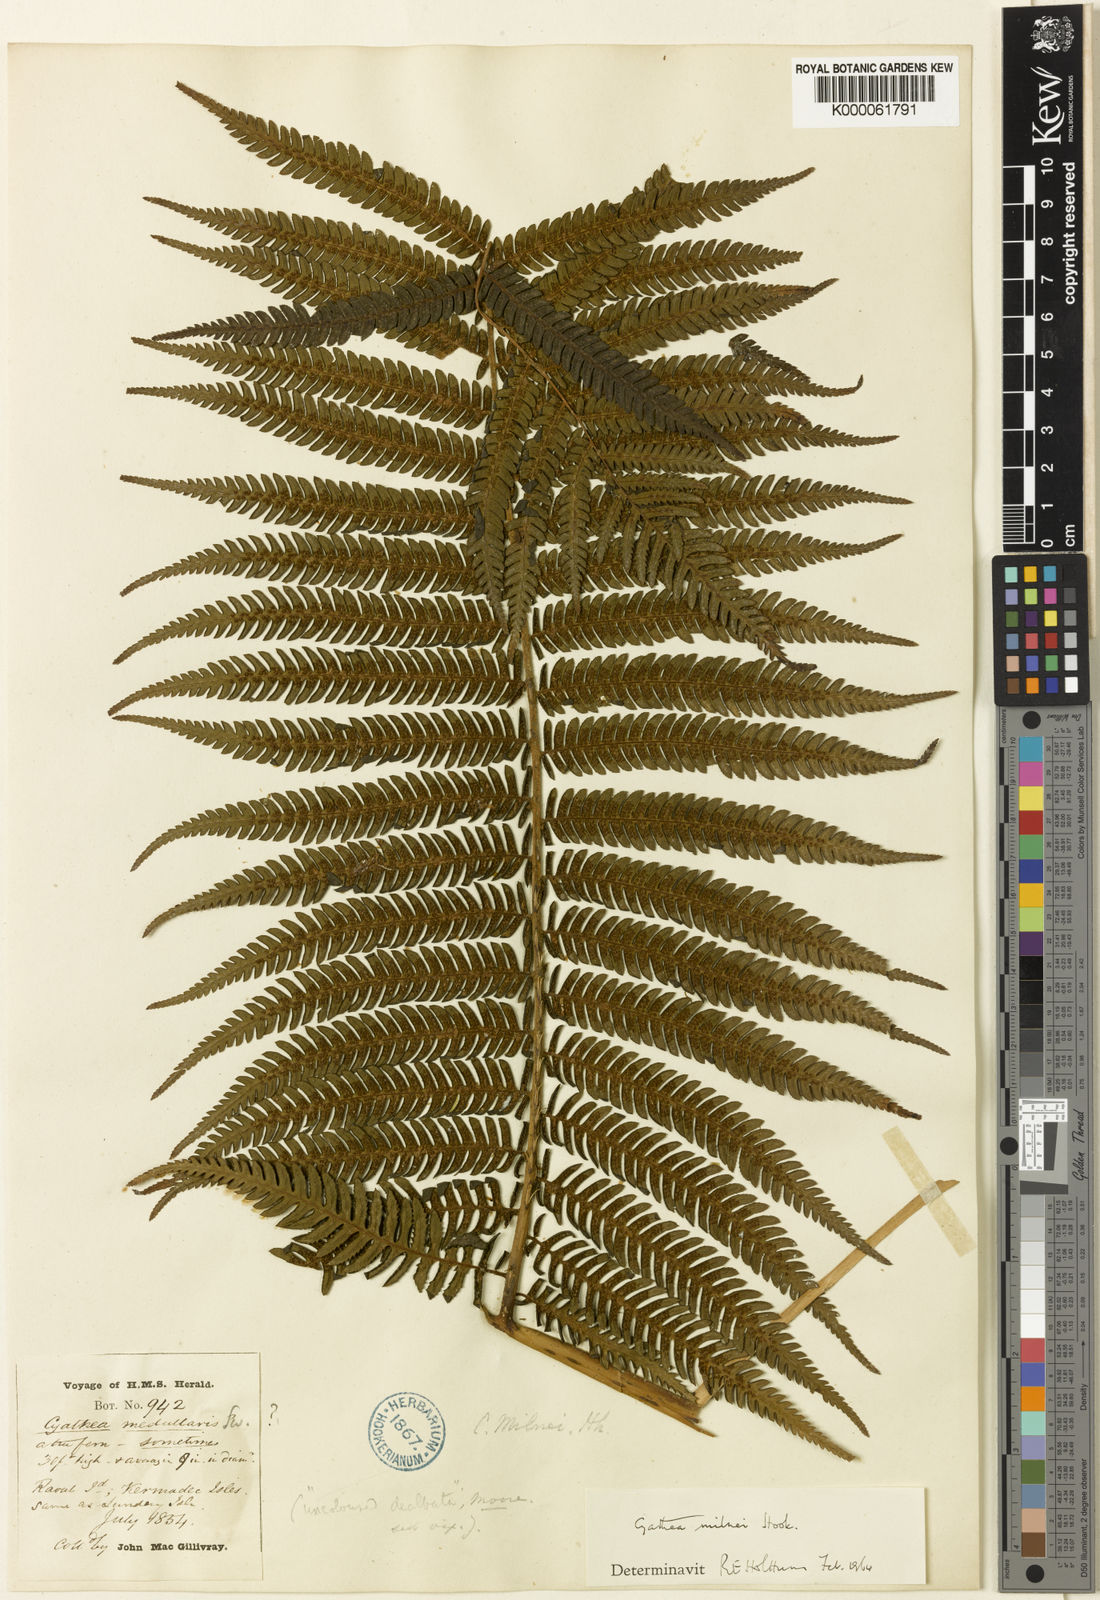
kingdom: Plantae
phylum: Tracheophyta
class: Polypodiopsida
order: Cyatheales
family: Cyatheaceae
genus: Alsophila
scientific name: Alsophila milnei
